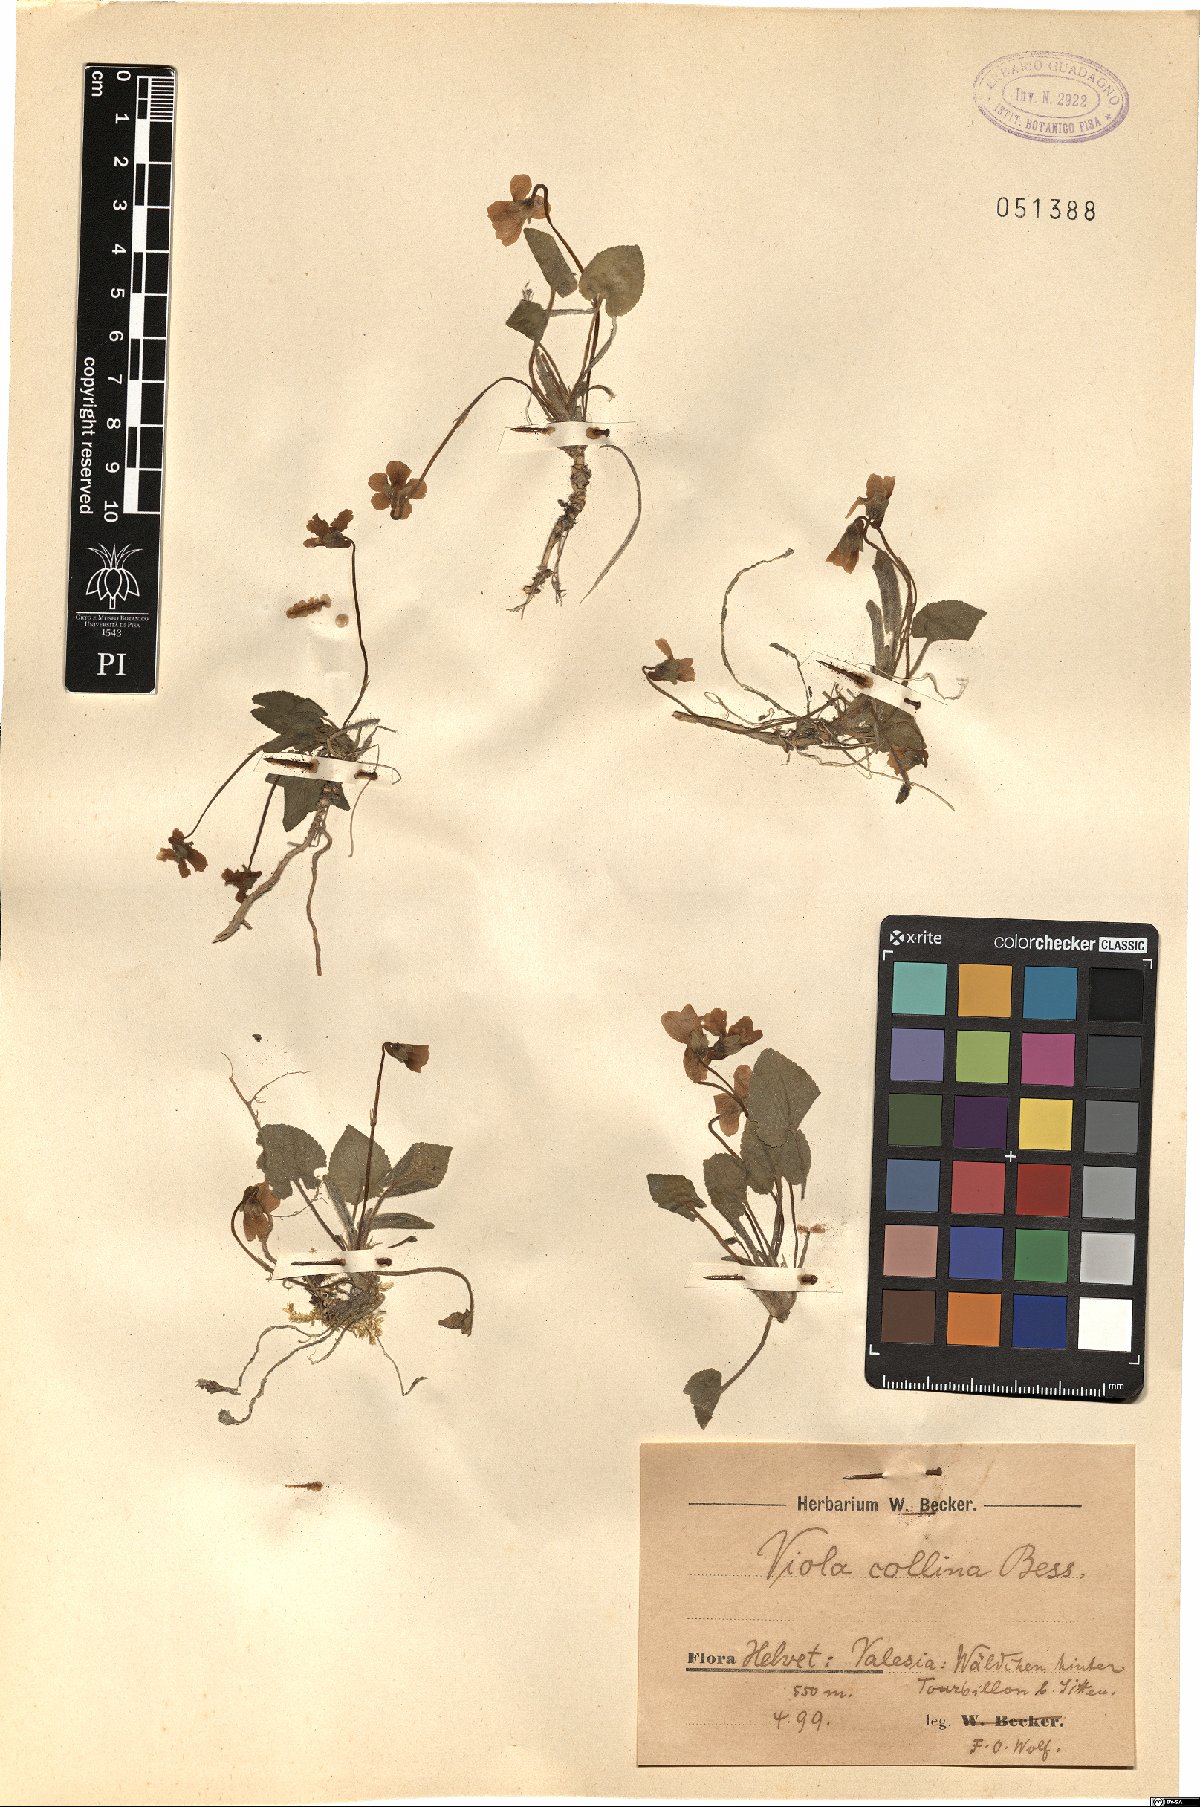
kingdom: Plantae
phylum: Tracheophyta
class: Magnoliopsida
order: Malpighiales
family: Violaceae
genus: Viola
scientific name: Viola collina
